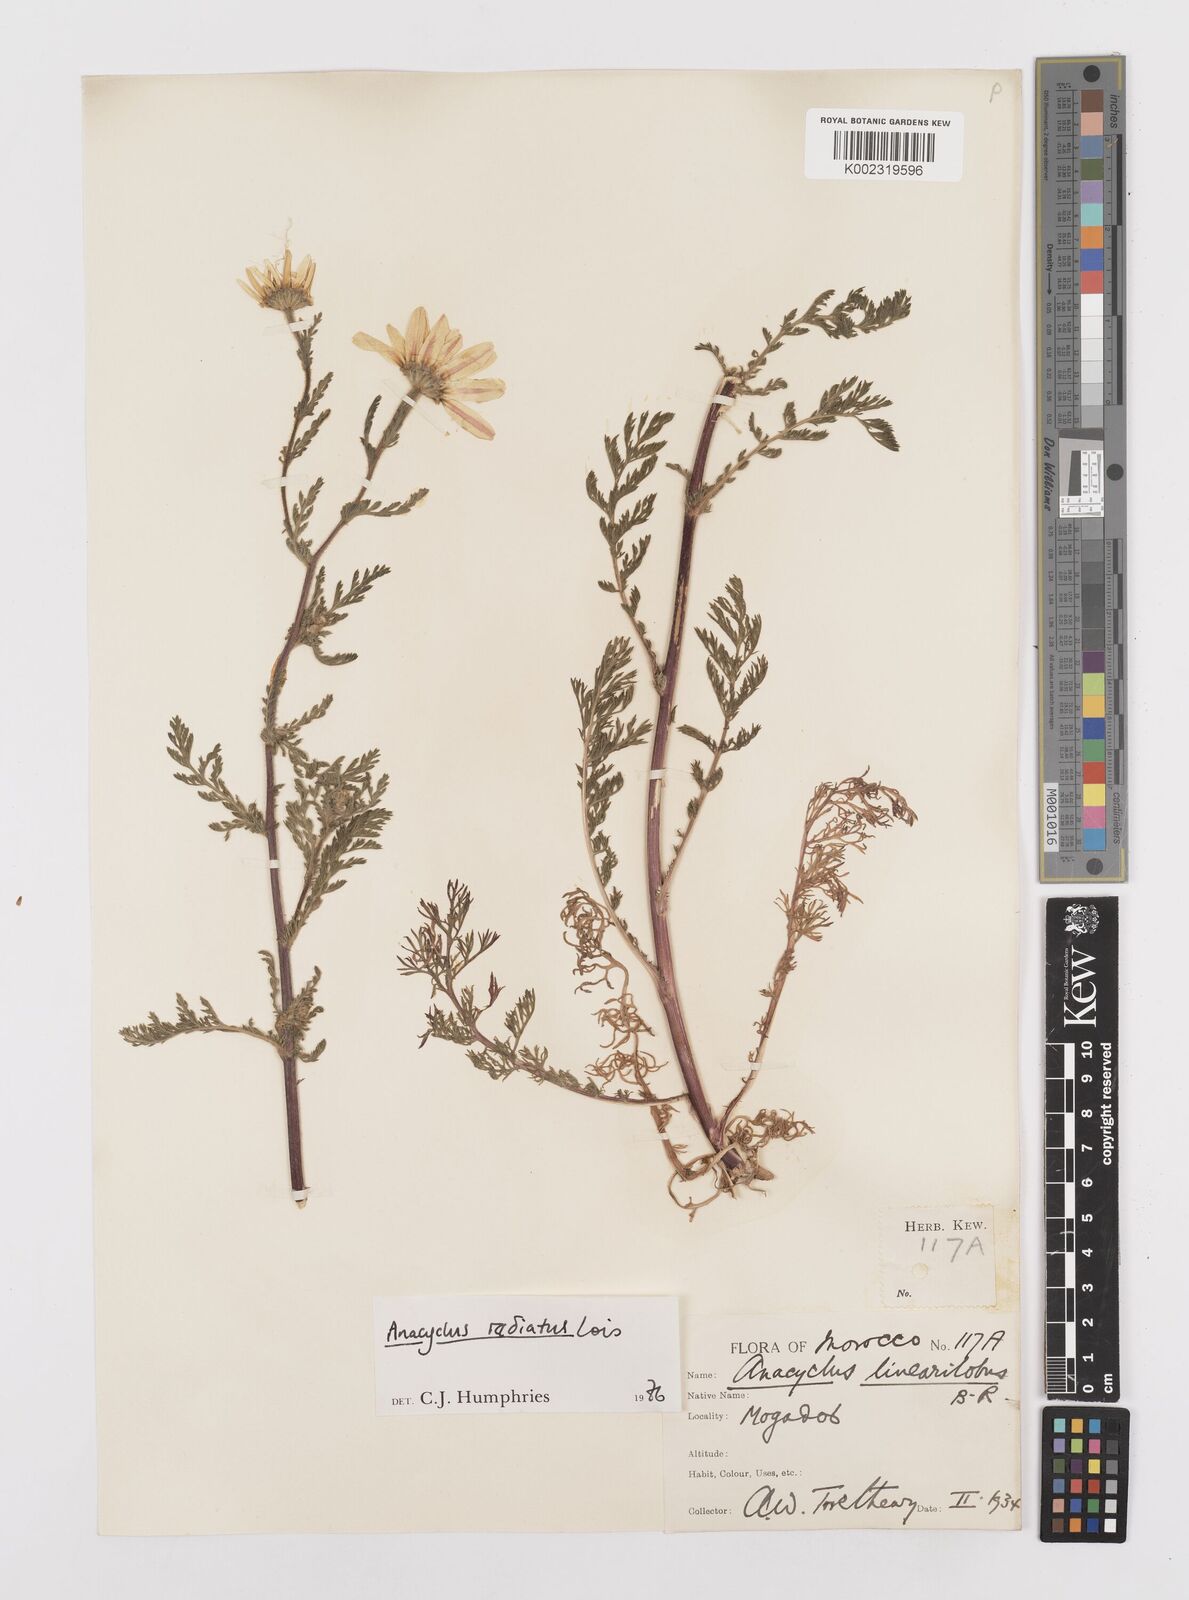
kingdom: Plantae
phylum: Tracheophyta
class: Magnoliopsida
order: Asterales
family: Asteraceae
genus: Anacyclus
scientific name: Anacyclus radiatus
